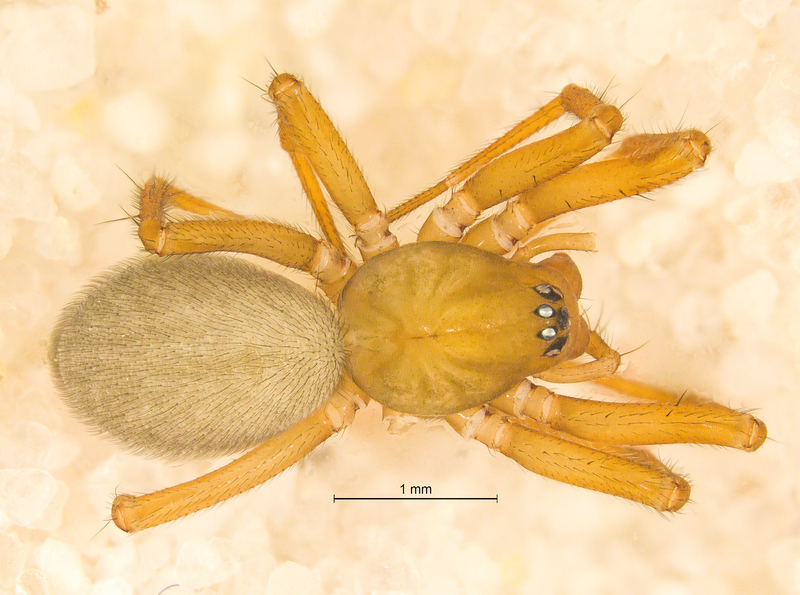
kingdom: Animalia
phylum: Arthropoda
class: Arachnida
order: Araneae
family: Linyphiidae
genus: Centromerus
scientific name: Centromerus sylvaticus
